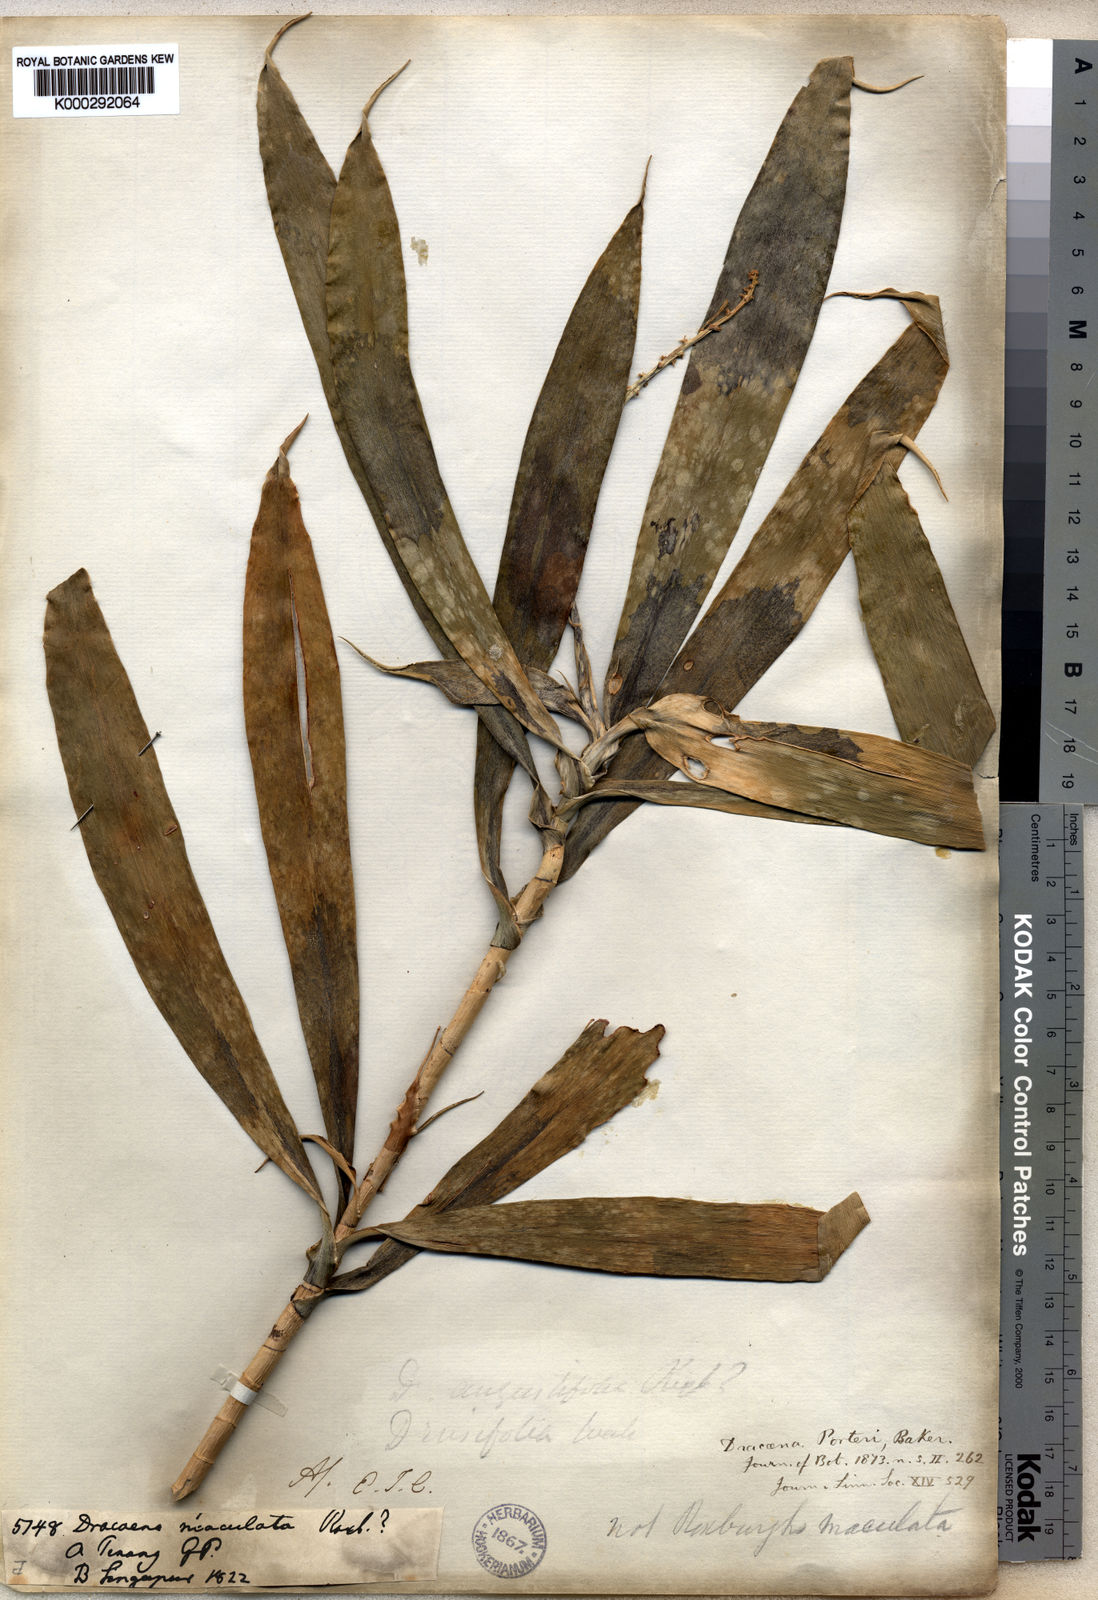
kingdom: Plantae
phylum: Tracheophyta
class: Liliopsida
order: Asparagales
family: Asparagaceae
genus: Dracaena
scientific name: Dracaena porteri
